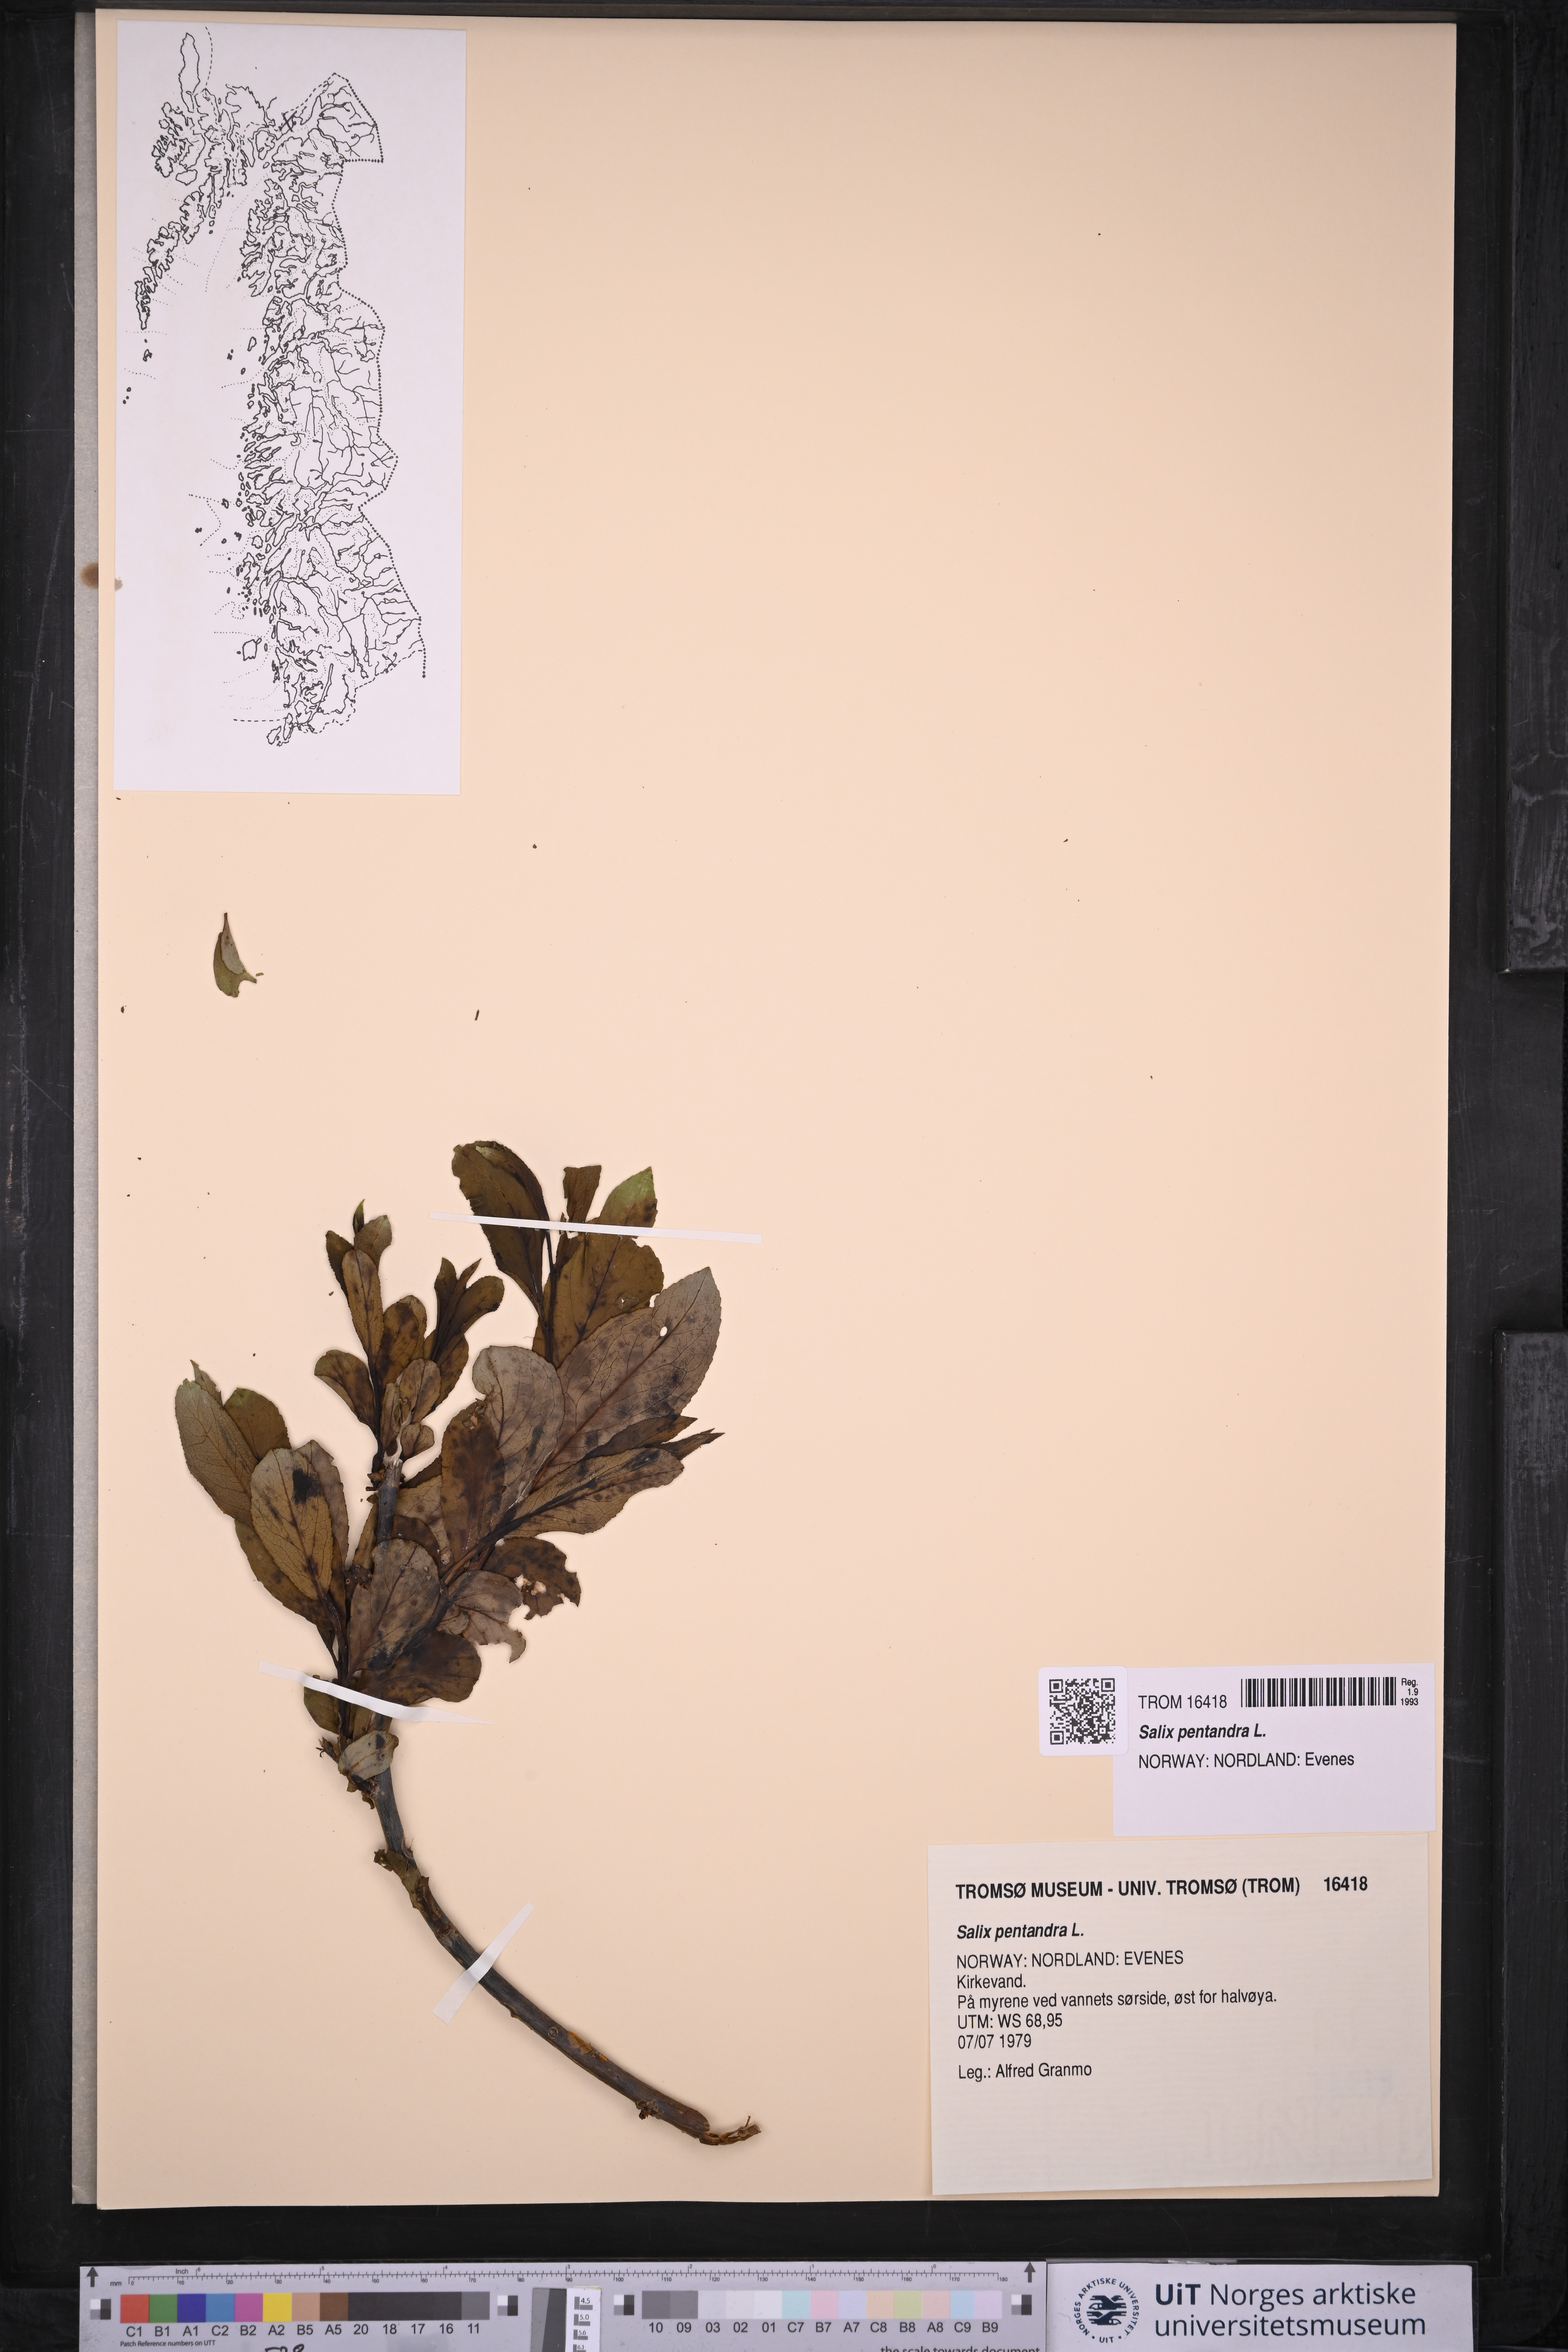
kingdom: Plantae
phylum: Tracheophyta
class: Magnoliopsida
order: Malpighiales
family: Salicaceae
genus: Salix
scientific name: Salix pentandra
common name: Bay willow
